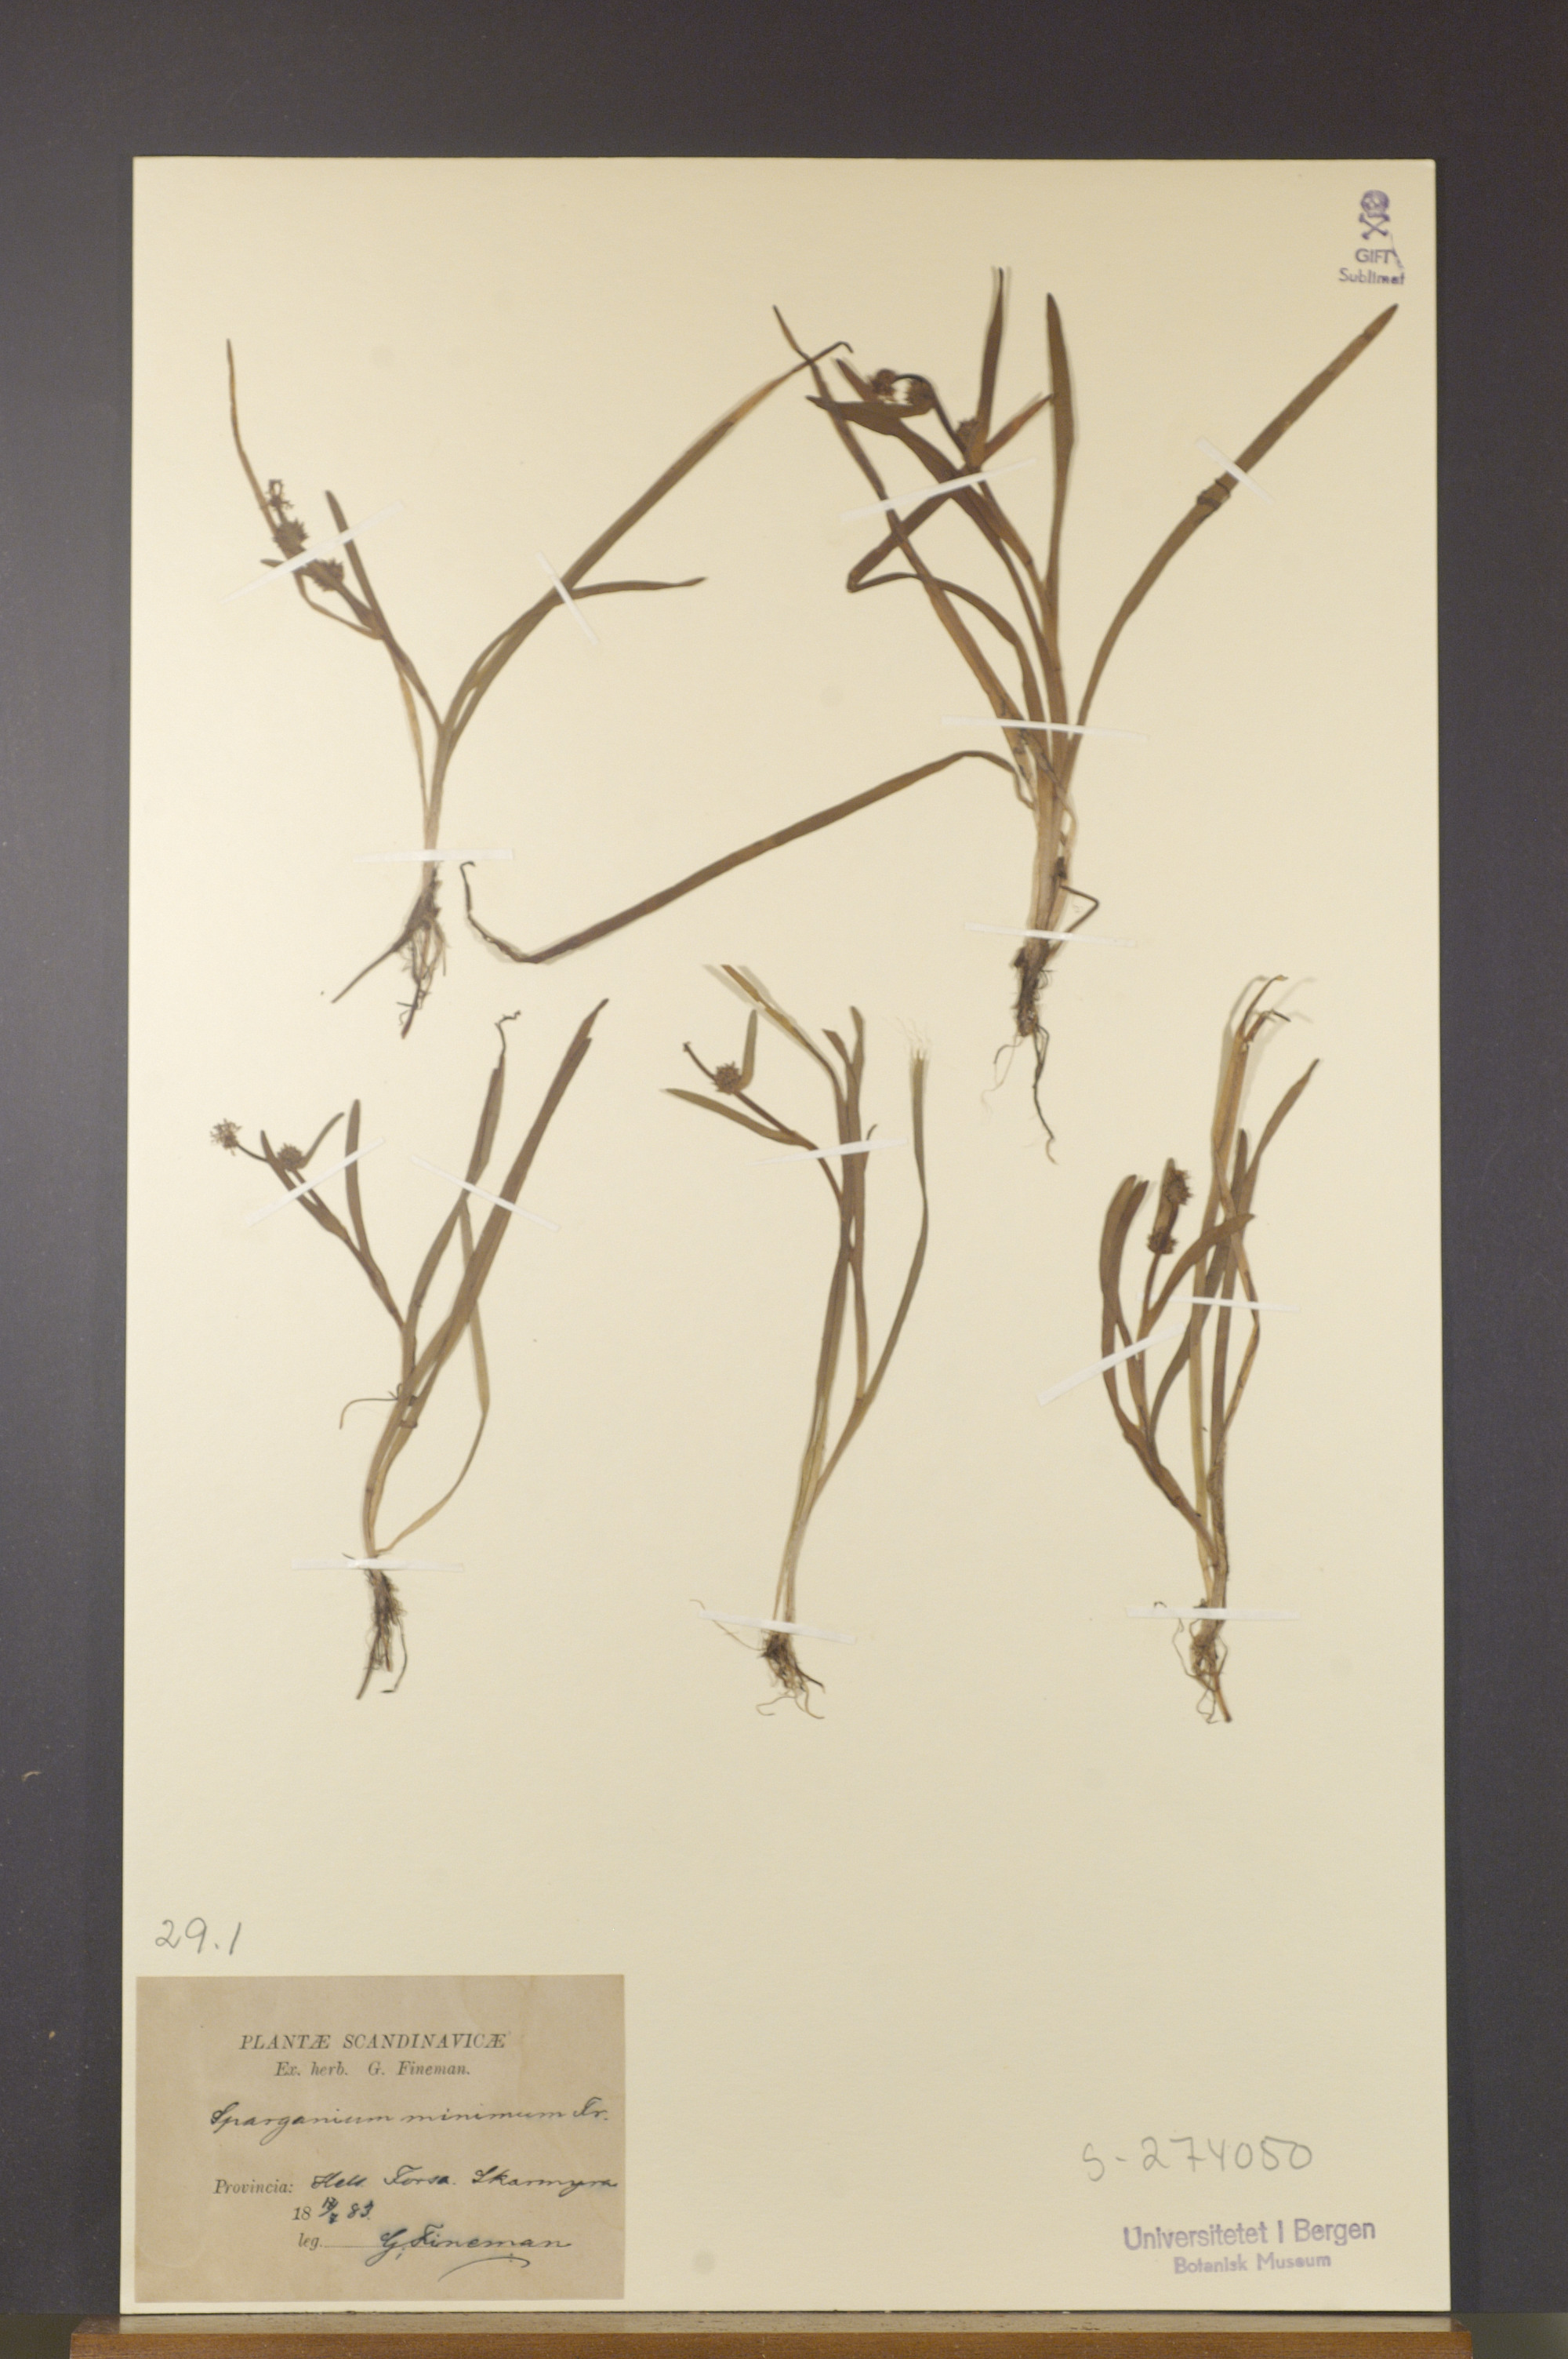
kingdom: Plantae
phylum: Tracheophyta
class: Liliopsida
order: Poales
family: Typhaceae
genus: Sparganium
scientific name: Sparganium natans
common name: Least bur-reed
